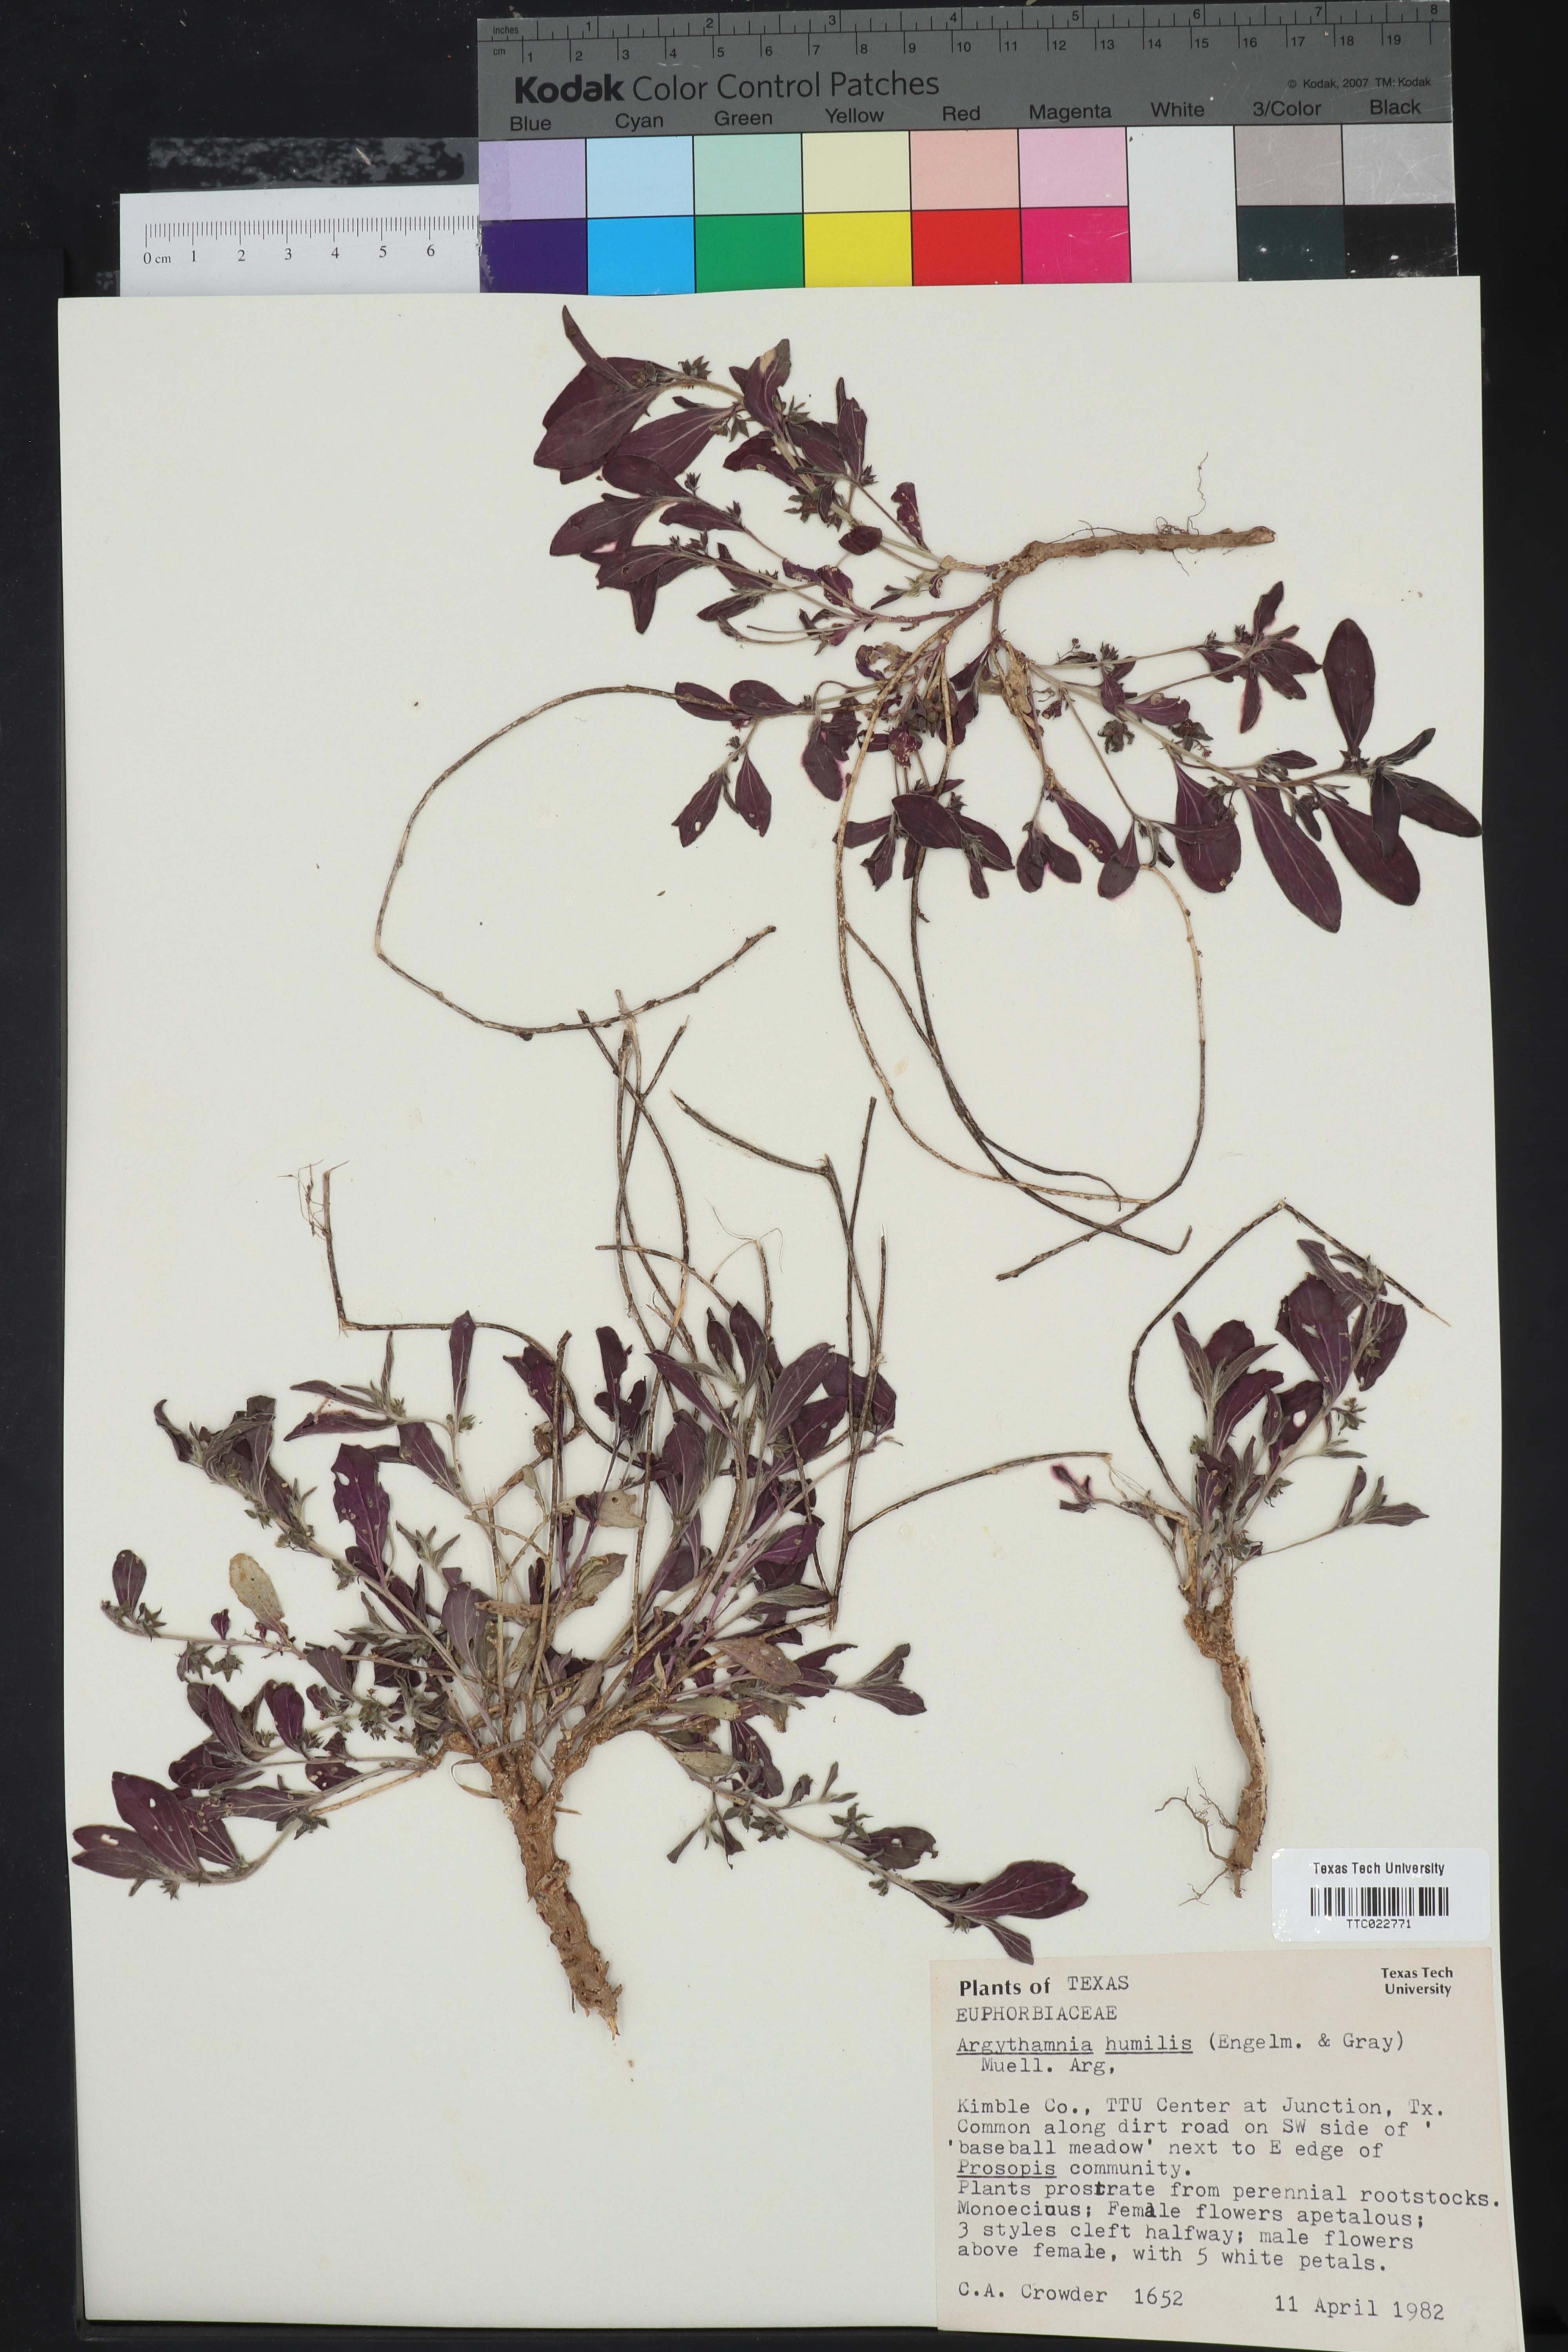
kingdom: Plantae
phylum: Tracheophyta
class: Magnoliopsida
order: Malpighiales
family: Euphorbiaceae
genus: Ditaxis
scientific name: Ditaxis humilis
